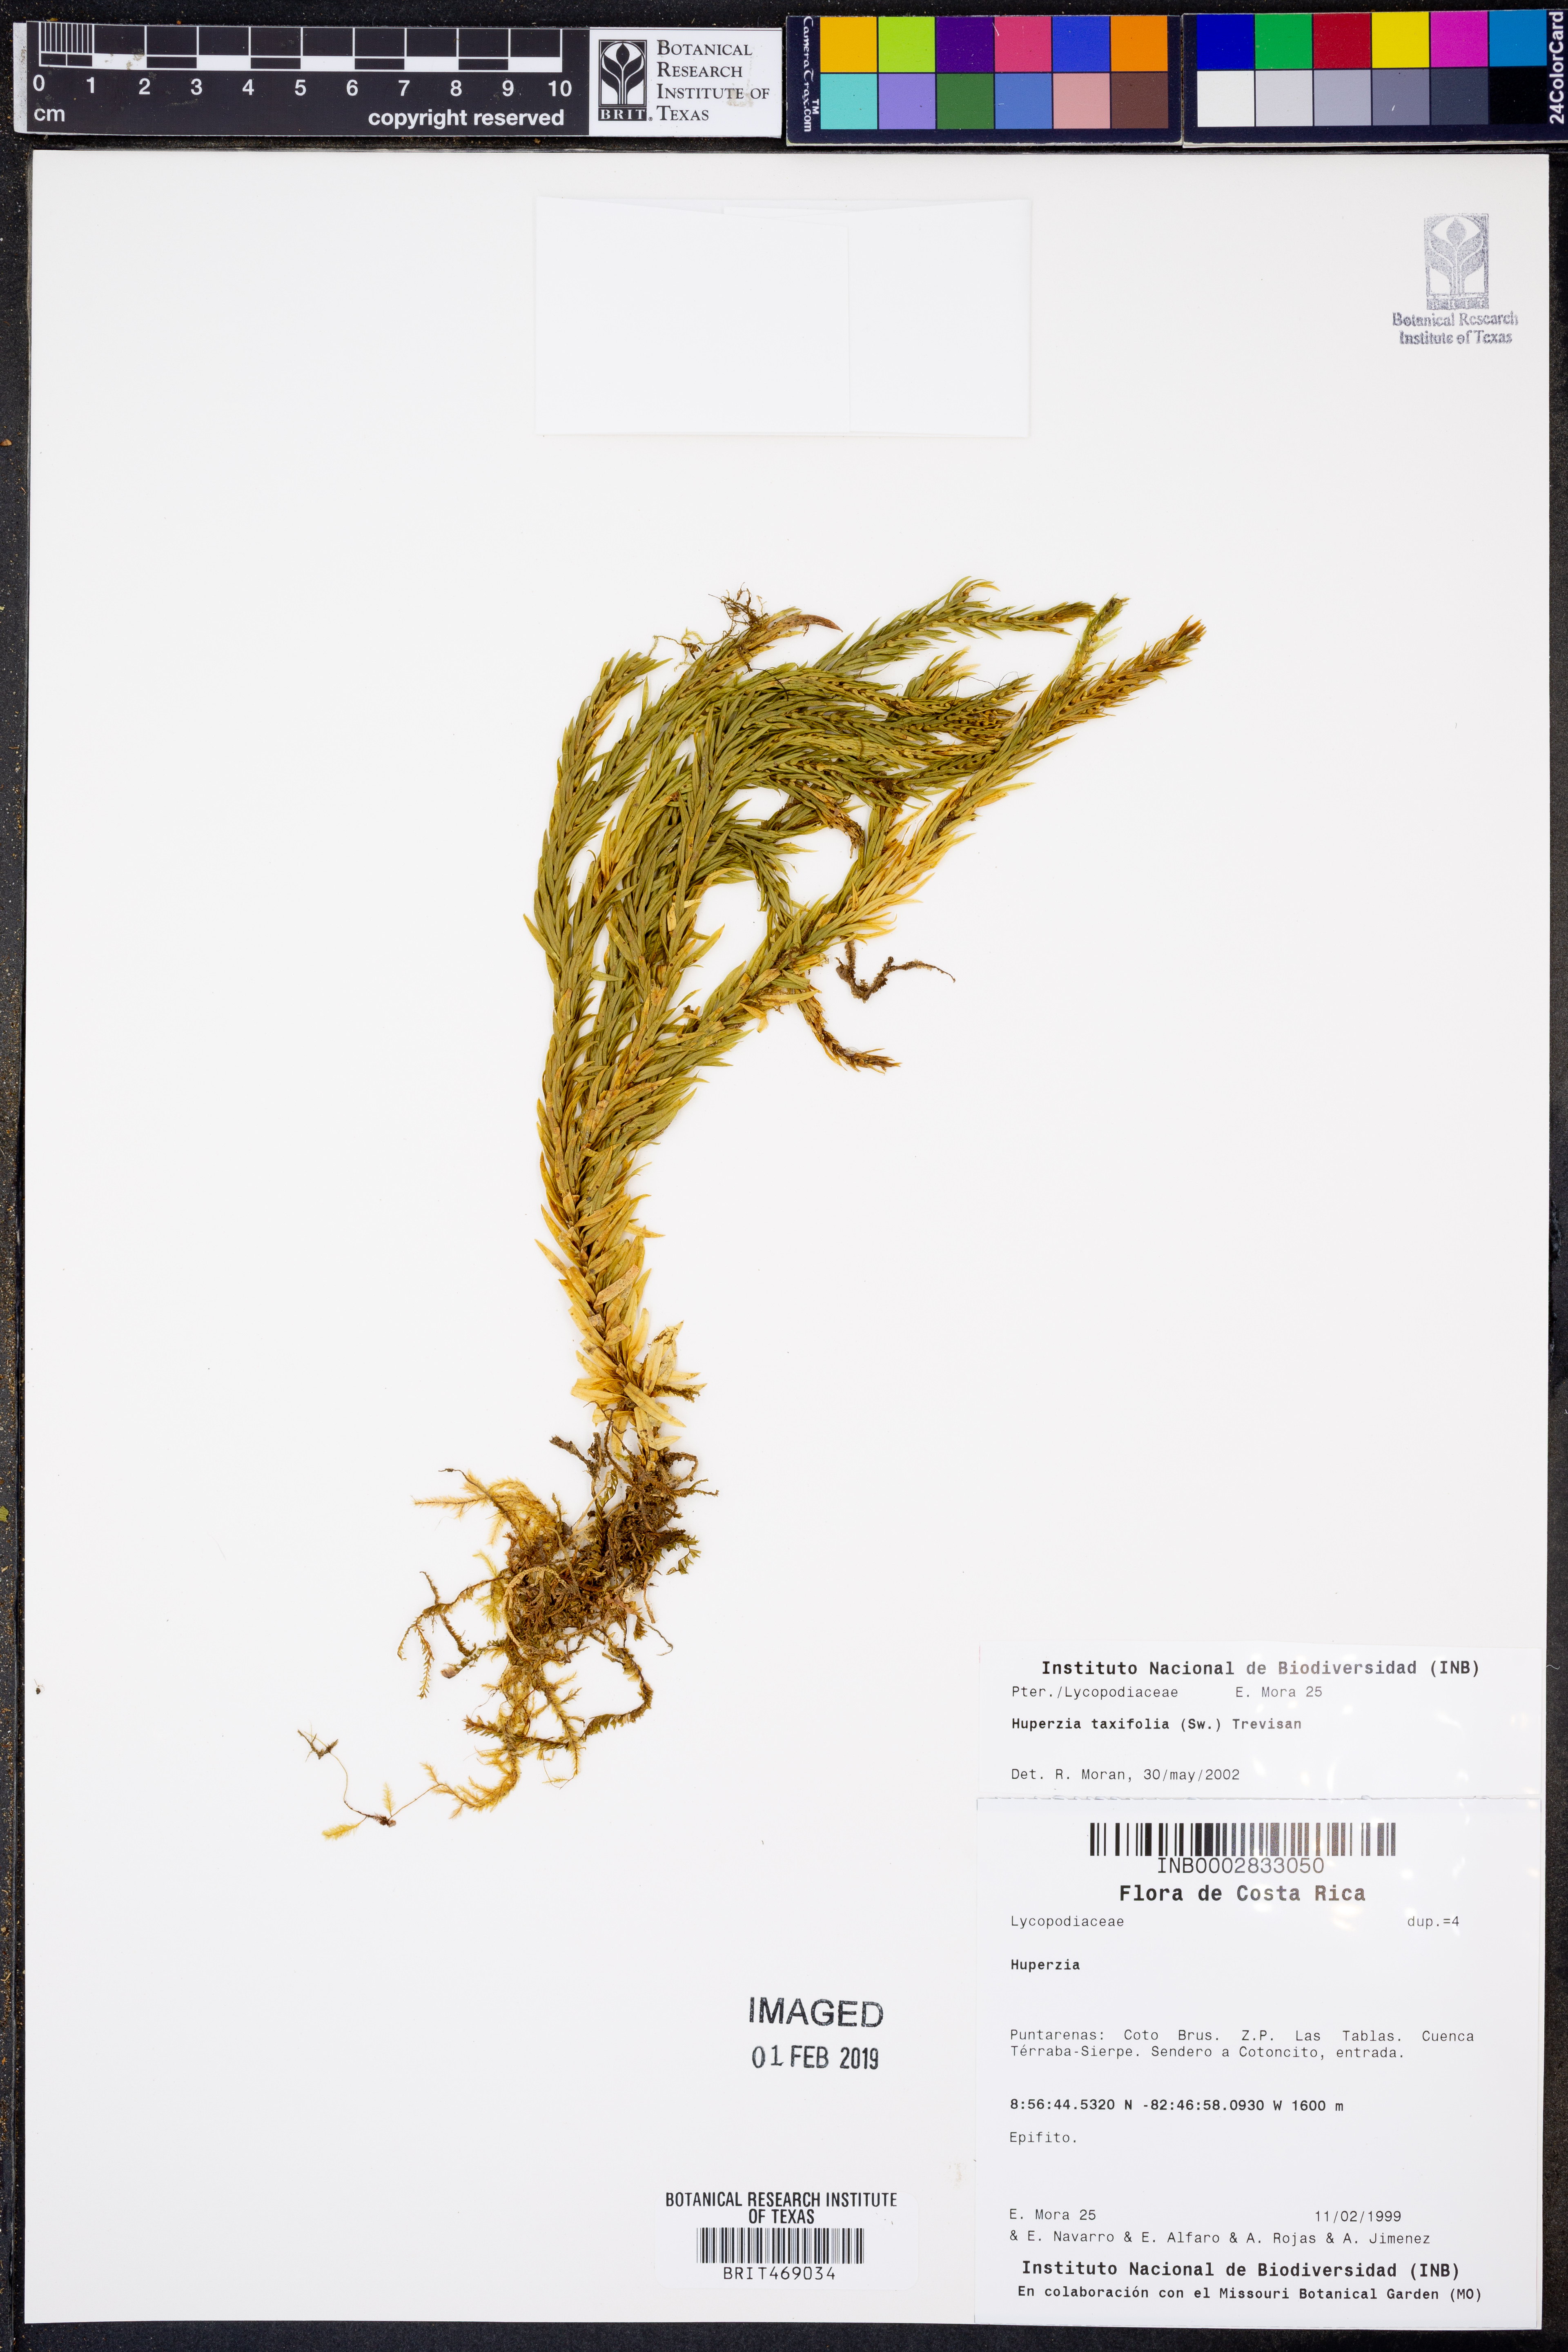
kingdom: Plantae
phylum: Tracheophyta
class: Lycopodiopsida
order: Lycopodiales
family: Lycopodiaceae
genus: Phlegmariurus
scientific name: Phlegmariurus taxifolius
